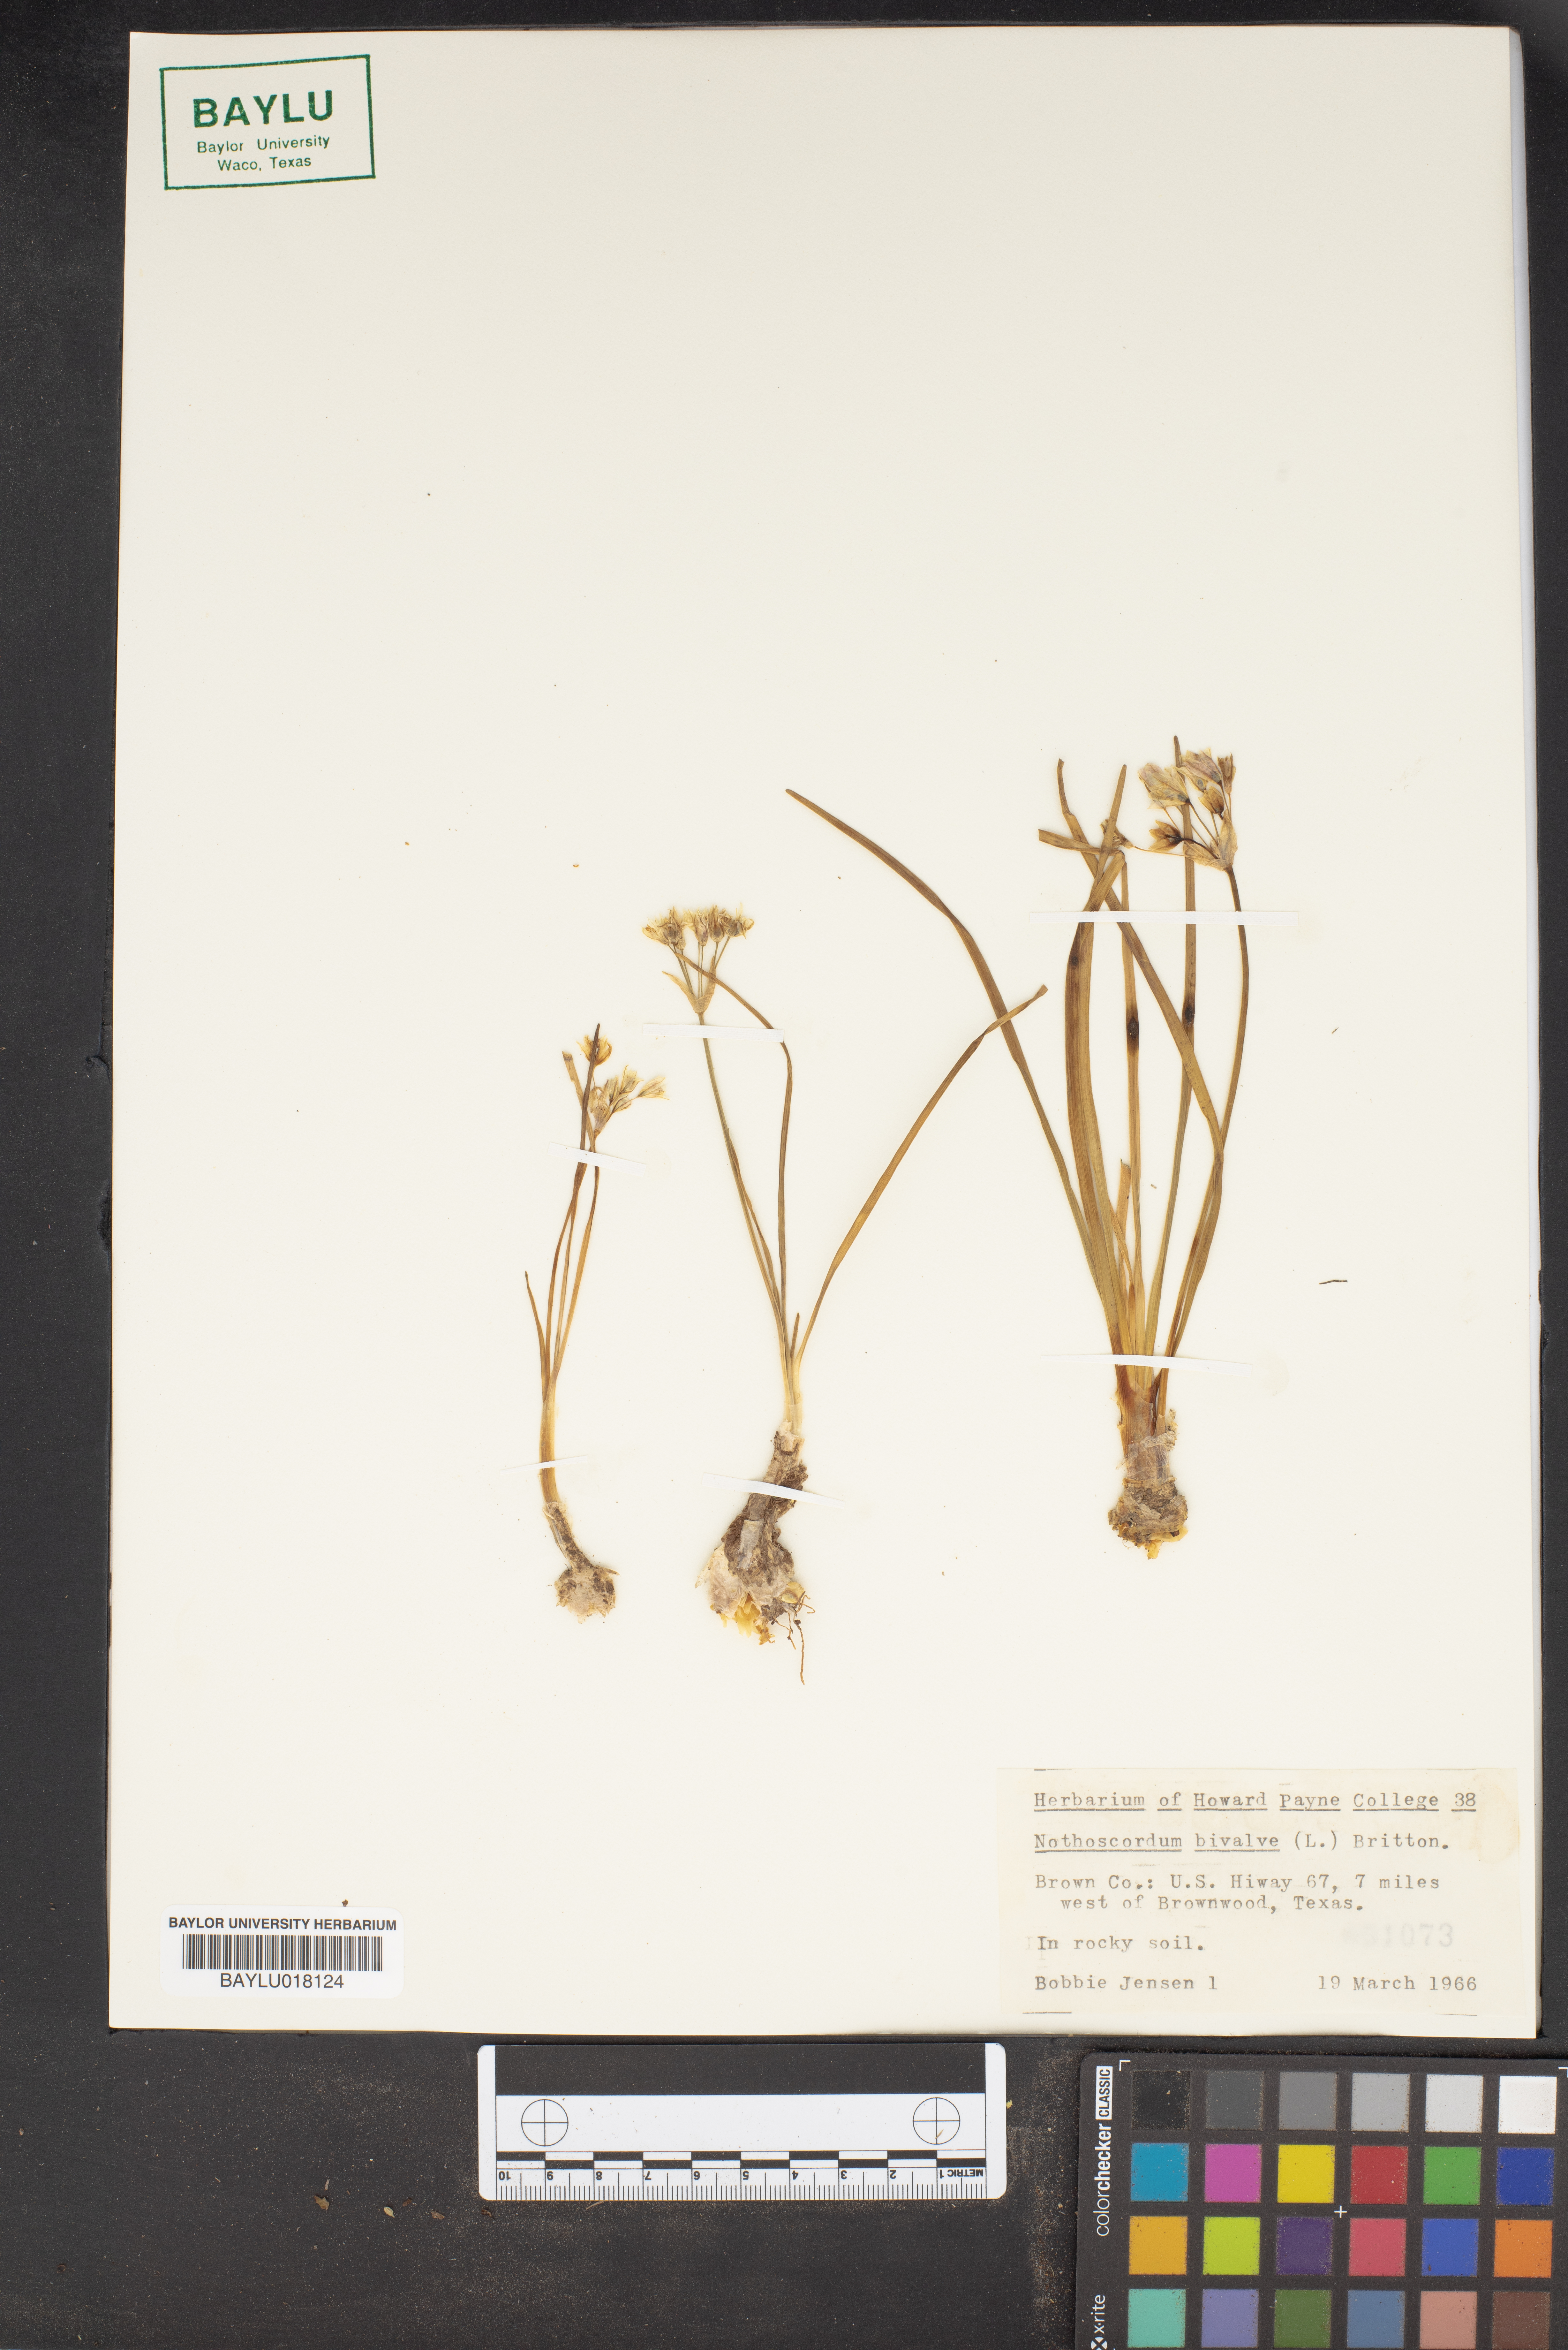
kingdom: Plantae
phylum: Tracheophyta
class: Liliopsida
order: Asparagales
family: Amaryllidaceae
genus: Nothoscordum
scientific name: Nothoscordum bivalve
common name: Crow-poison
